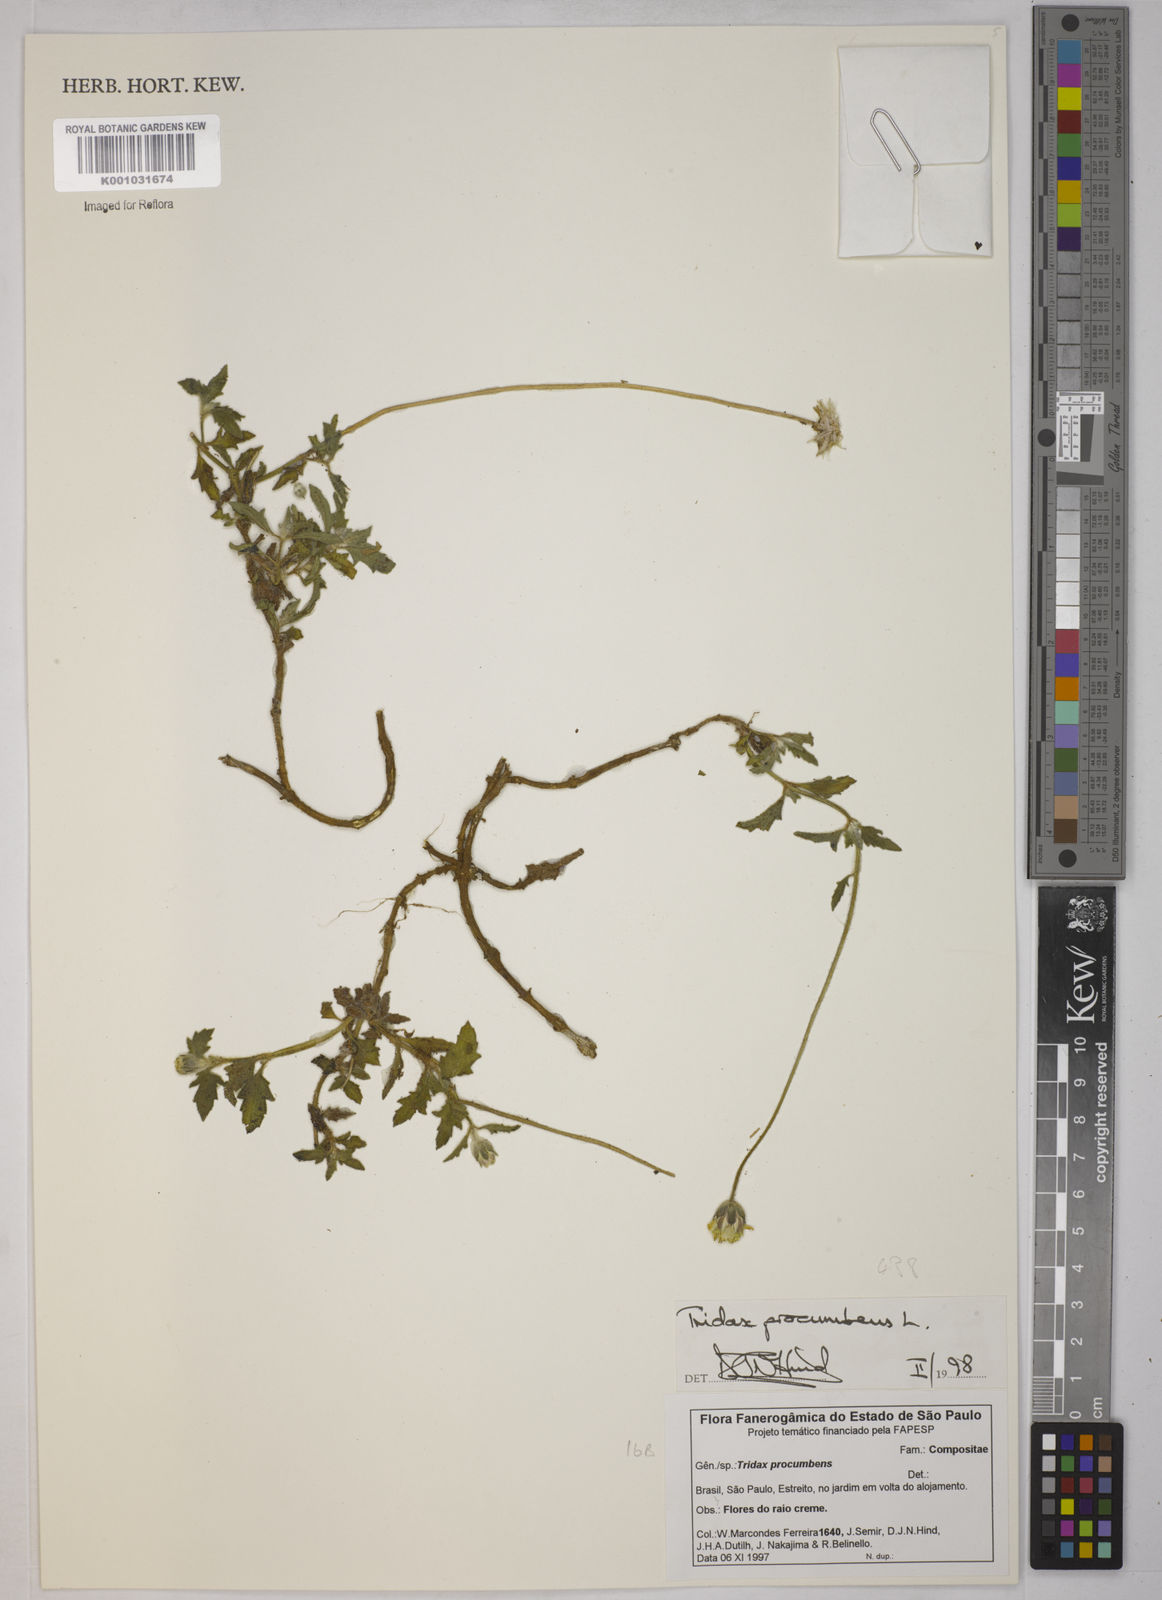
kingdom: Plantae
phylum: Tracheophyta
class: Magnoliopsida
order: Asterales
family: Asteraceae
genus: Tridax
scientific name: Tridax procumbens
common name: Coatbuttons
